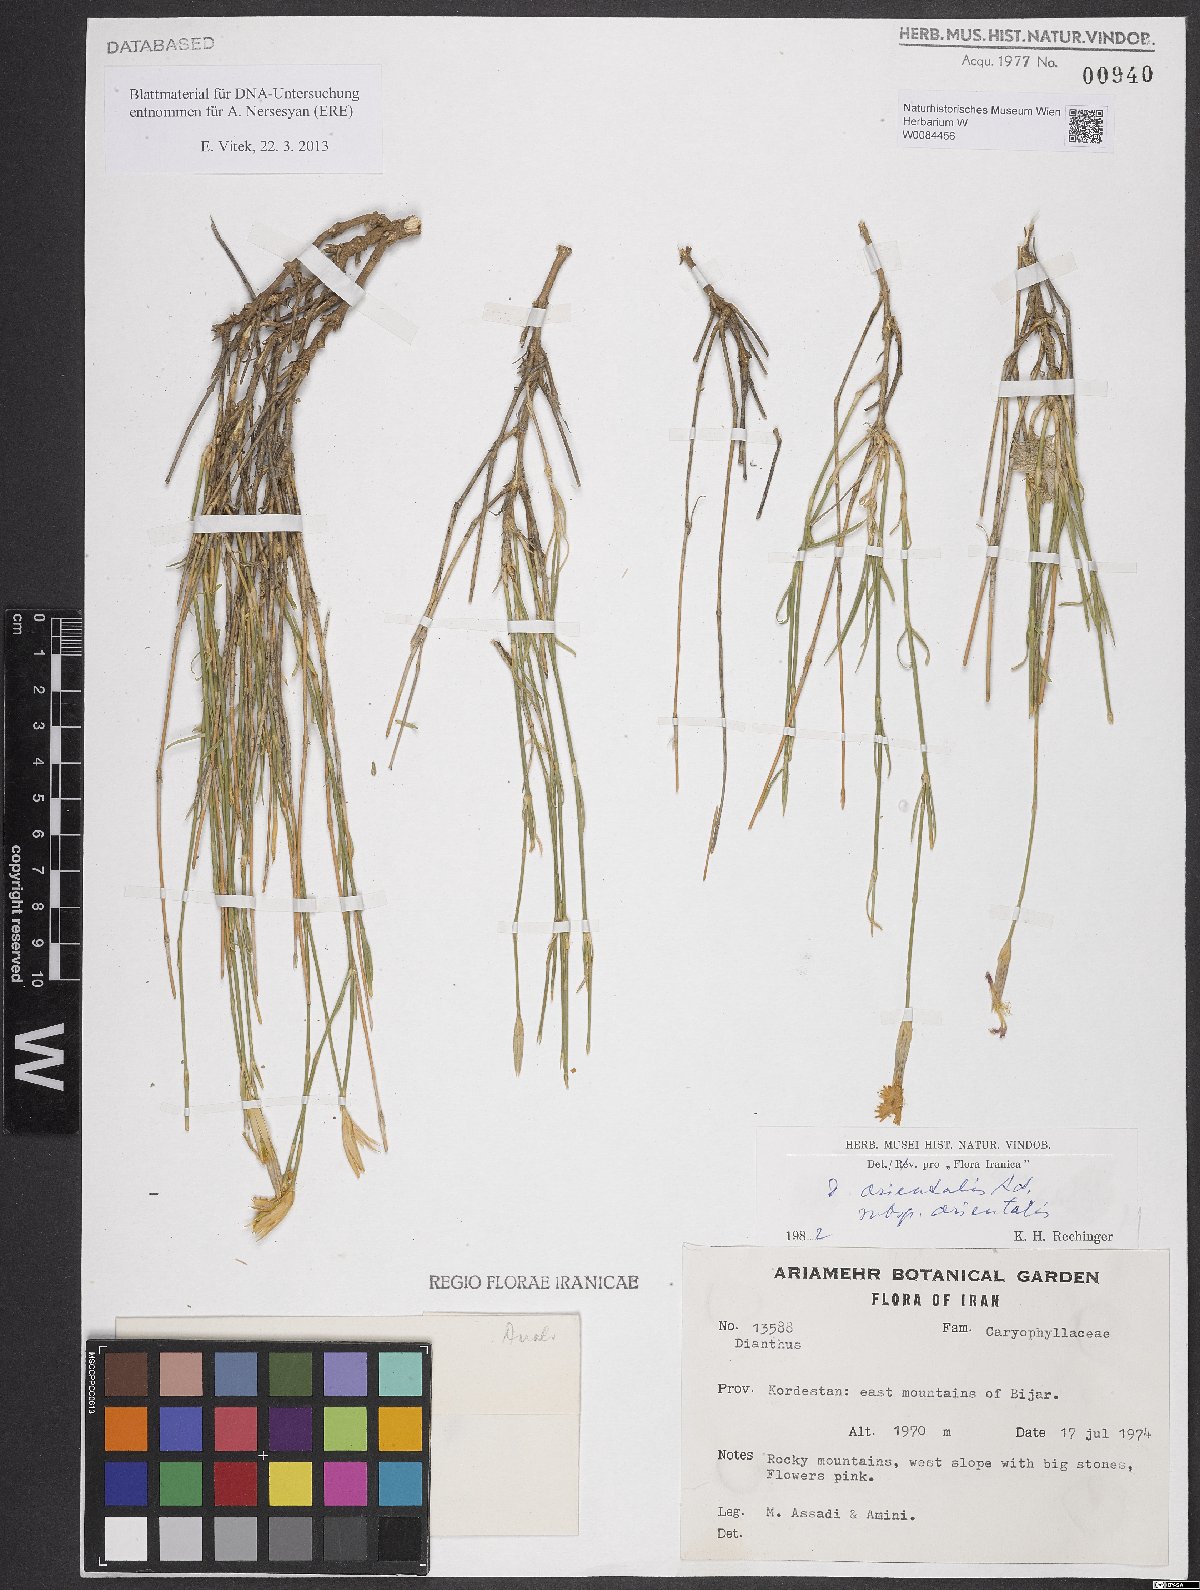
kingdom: Plantae
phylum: Tracheophyta
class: Magnoliopsida
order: Caryophyllales
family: Caryophyllaceae
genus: Dianthus
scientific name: Dianthus orientalis
